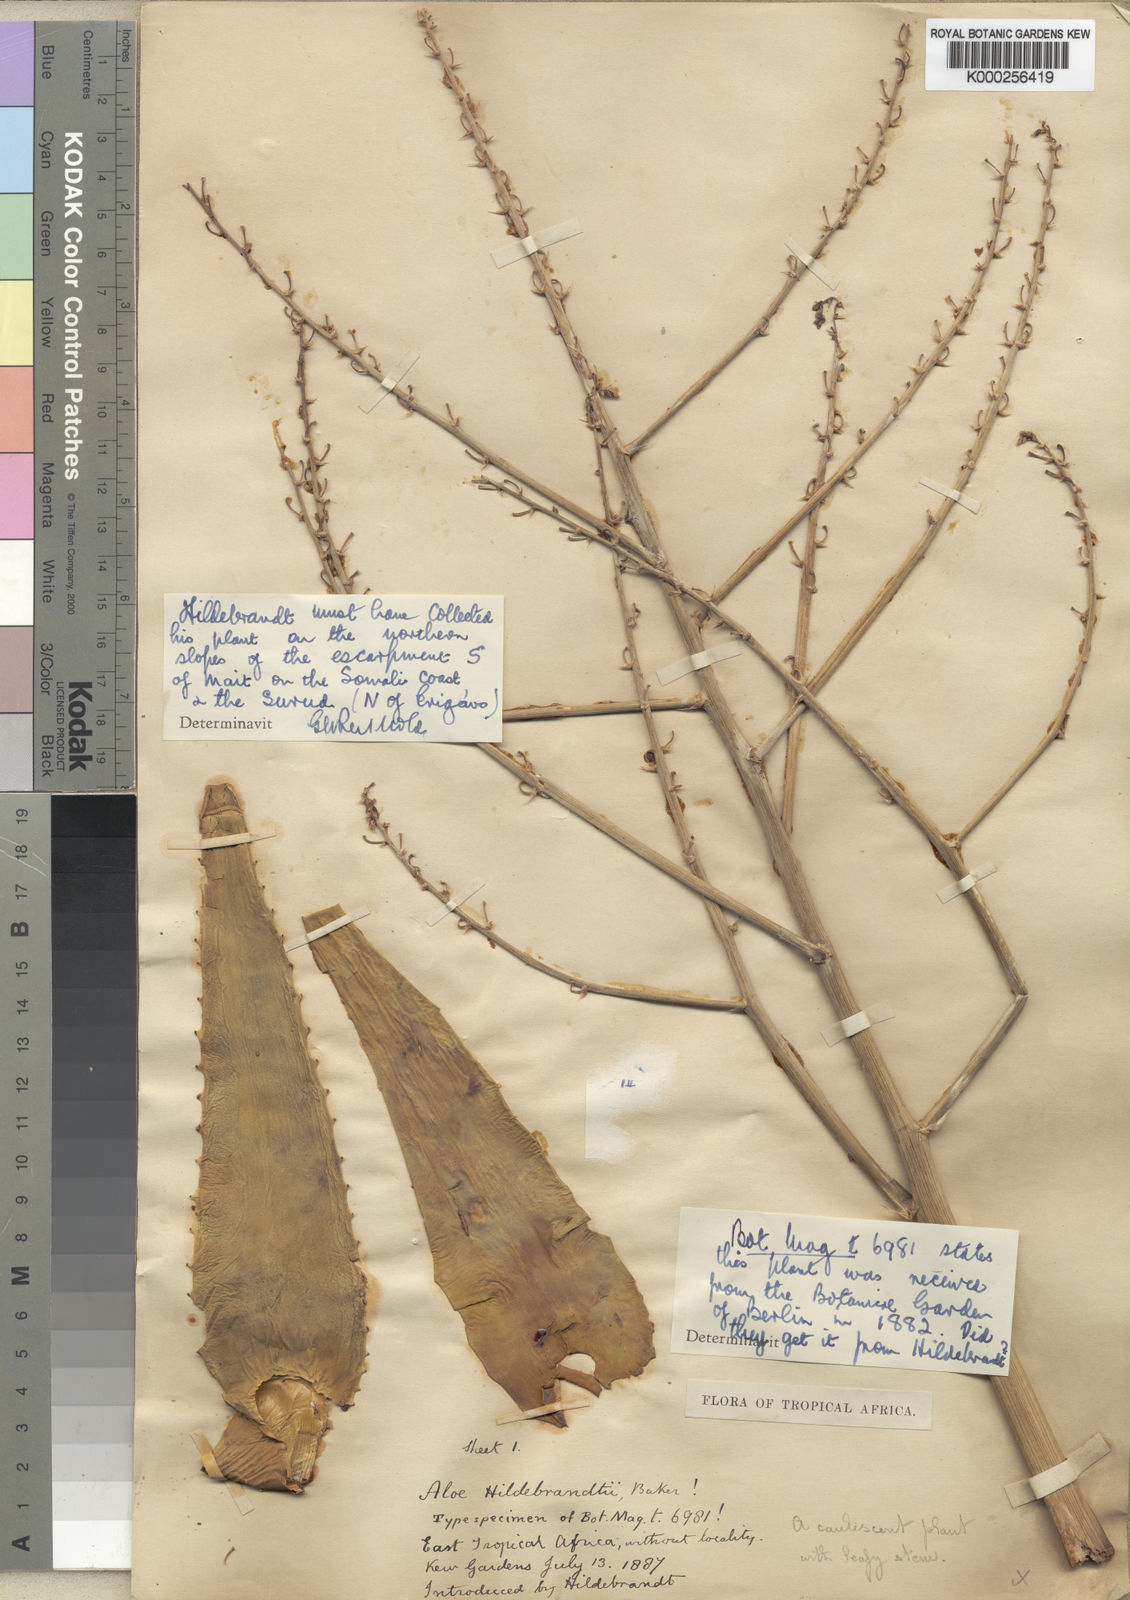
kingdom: Plantae
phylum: Tracheophyta
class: Liliopsida
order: Asparagales
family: Asphodelaceae
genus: Aloe
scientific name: Aloe hildebrandtii
